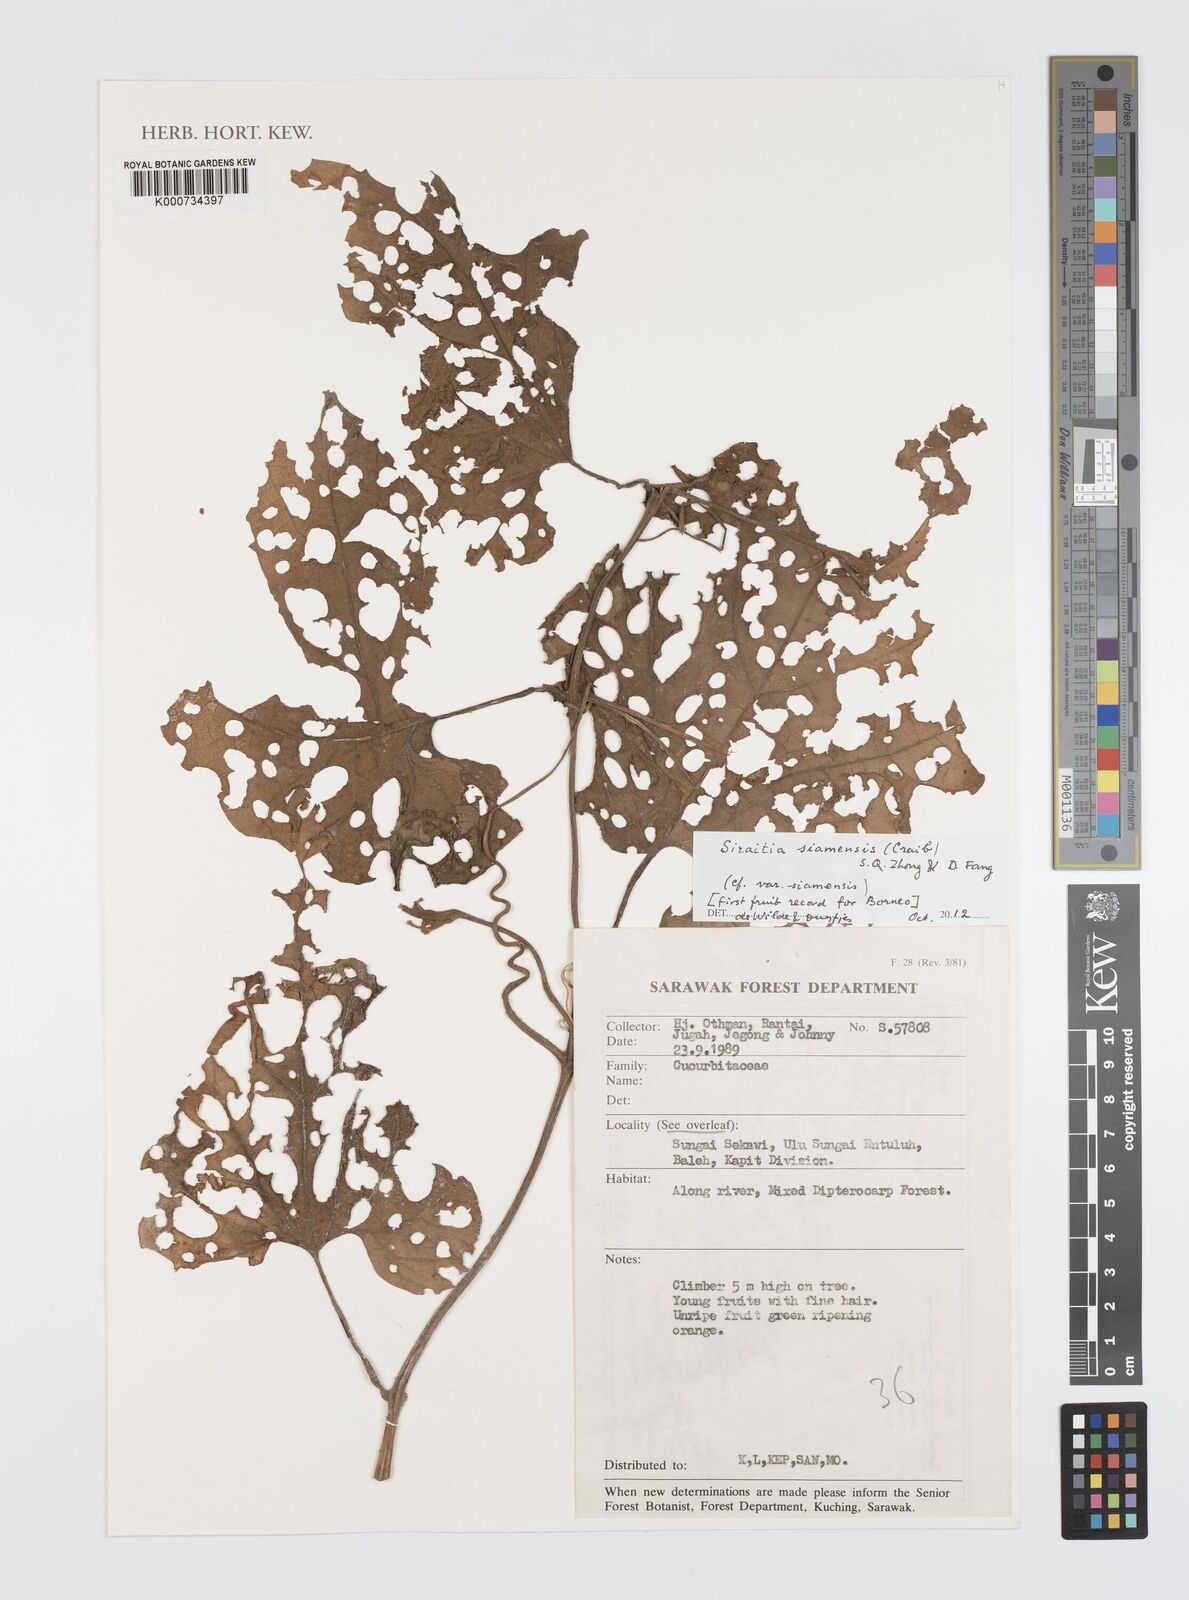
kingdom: Plantae
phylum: Tracheophyta
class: Magnoliopsida
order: Cucurbitales
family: Cucurbitaceae
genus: Siraitia
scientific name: Siraitia siamensis
